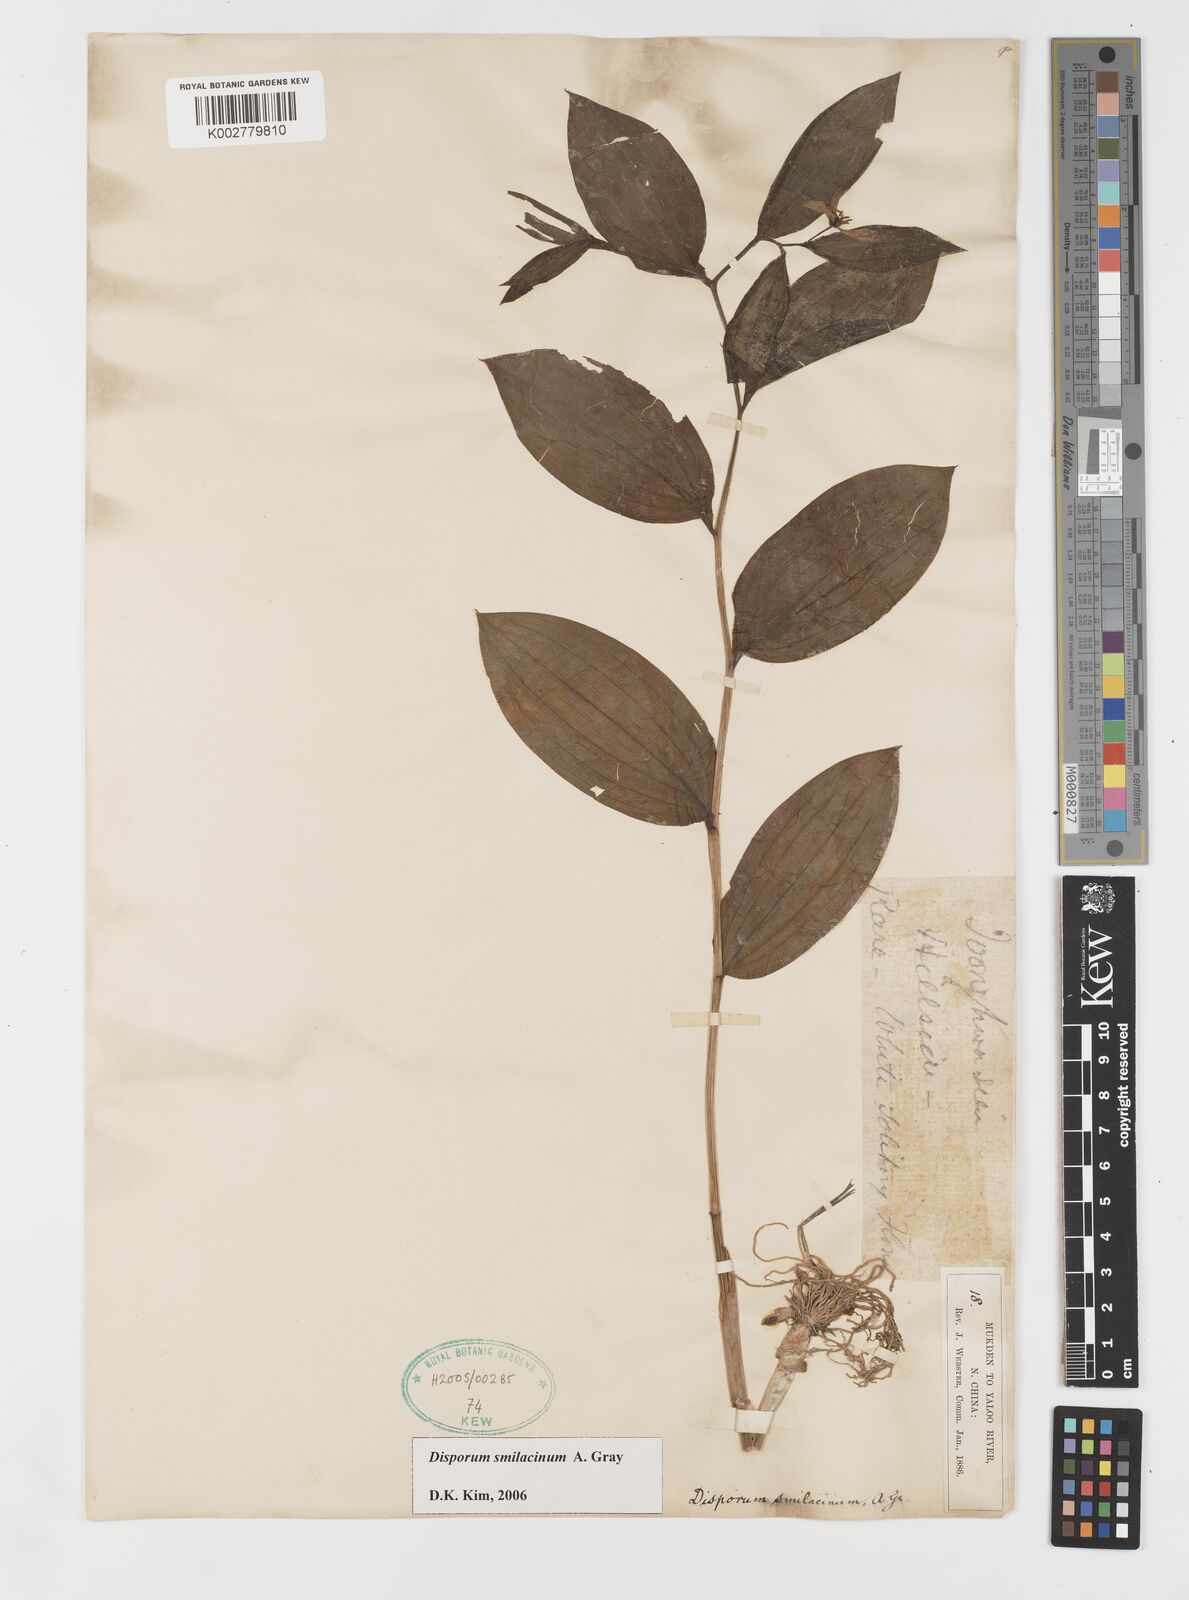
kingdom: Plantae
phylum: Tracheophyta
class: Liliopsida
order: Liliales
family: Colchicaceae
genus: Disporum
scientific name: Disporum smilacinum
